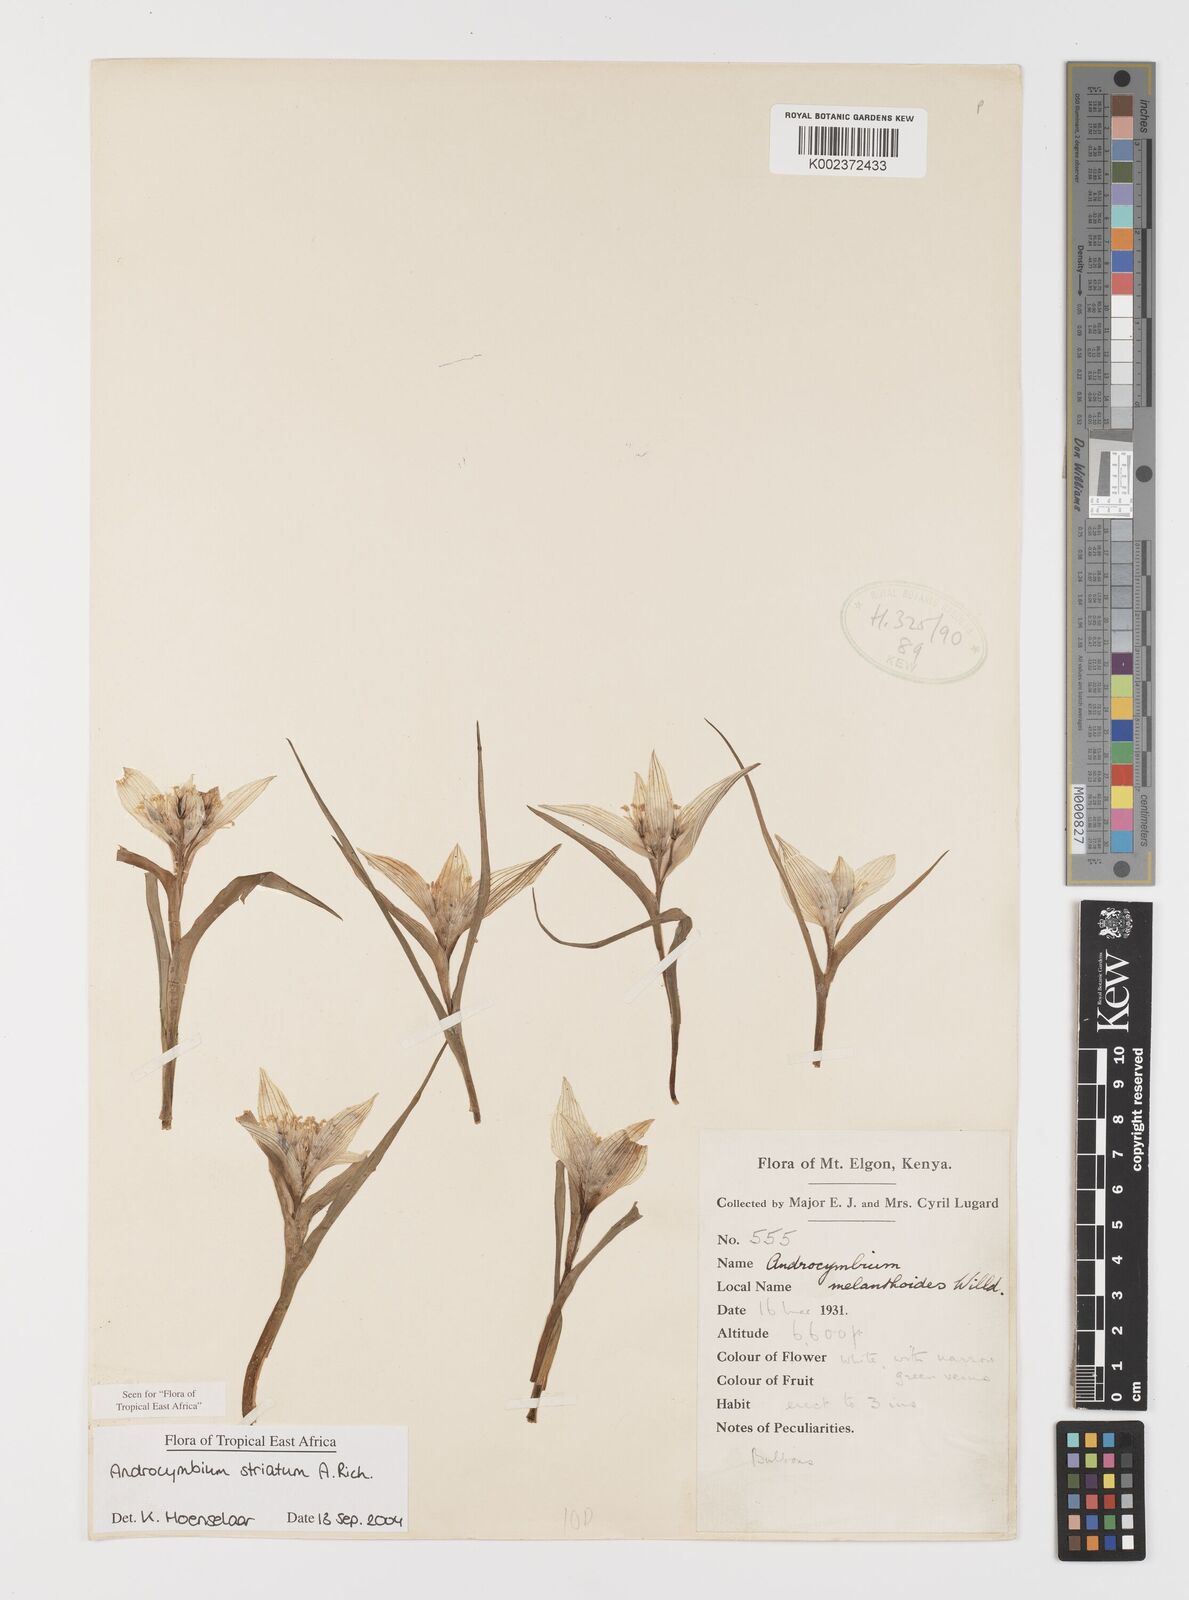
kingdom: Plantae
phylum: Tracheophyta
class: Liliopsida
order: Liliales
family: Colchicaceae
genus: Colchicum
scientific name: Colchicum striatum
